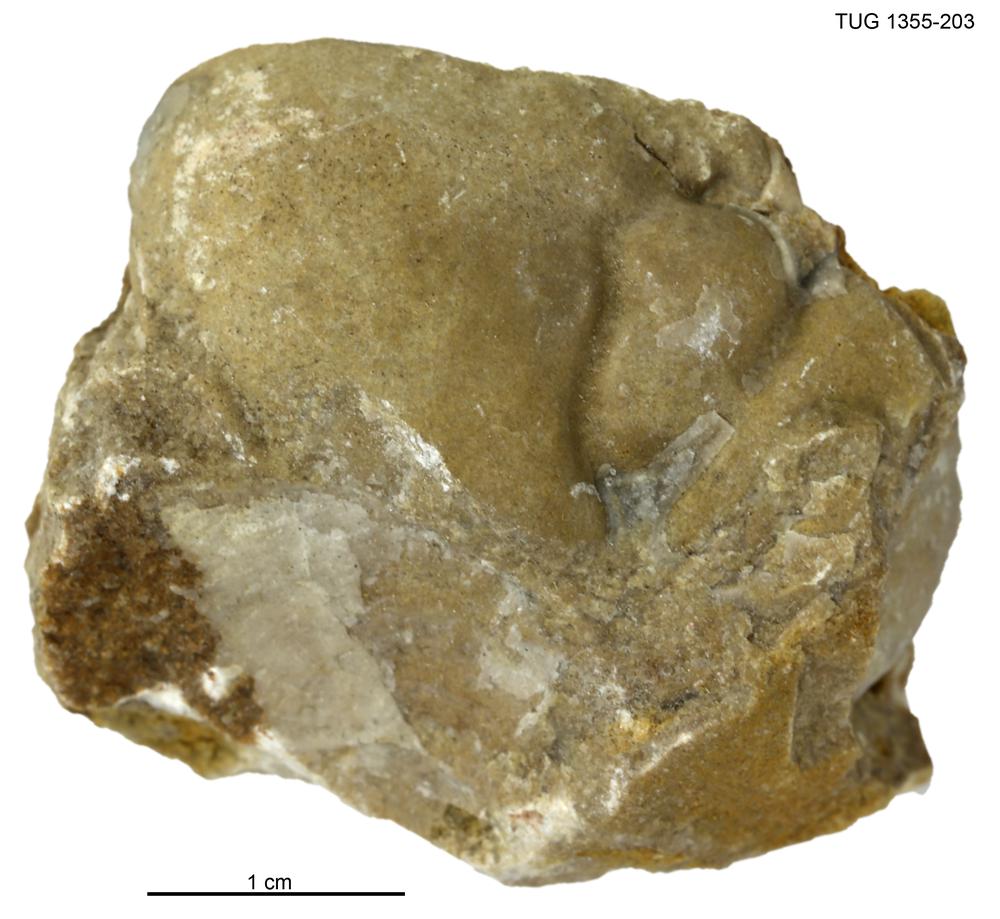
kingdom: Animalia
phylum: Arthropoda
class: Trilobita
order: Phacopida
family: Pterygometopidae
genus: Chasmops
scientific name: Chasmops macrourus
